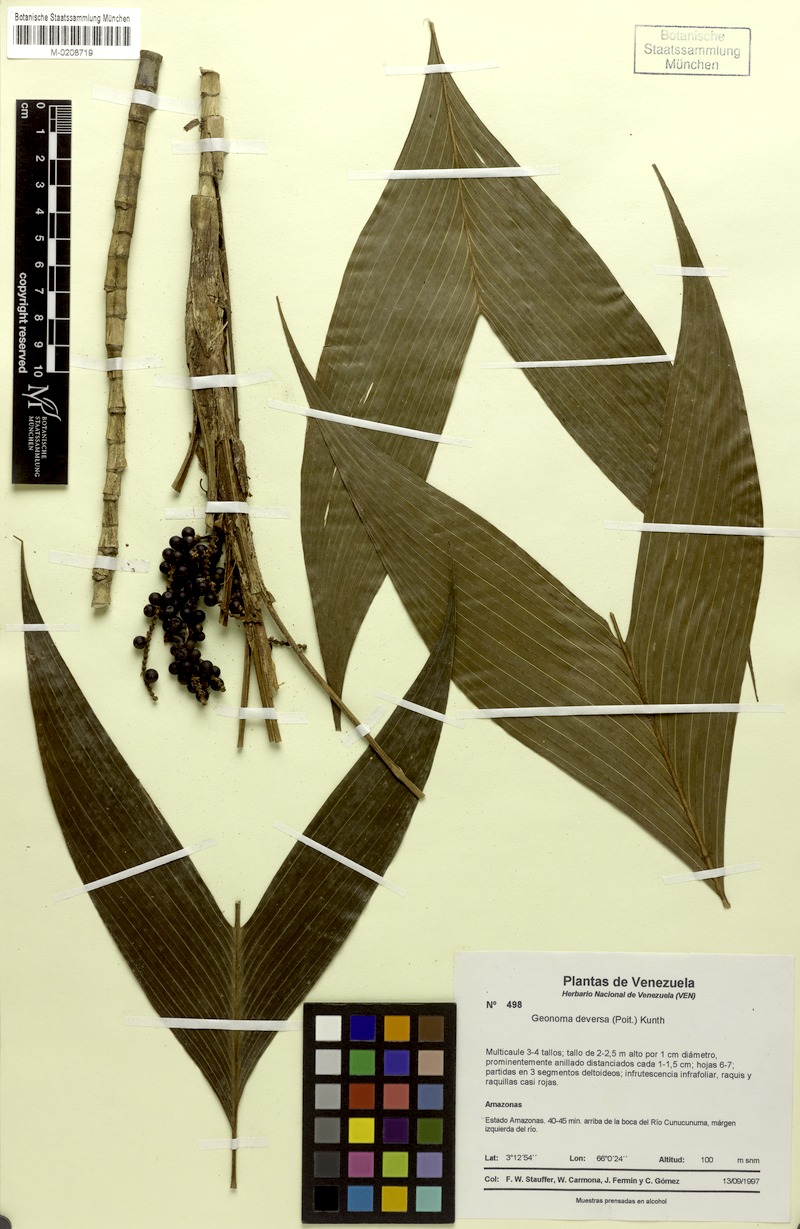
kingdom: Plantae
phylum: Tracheophyta
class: Liliopsida
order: Arecales
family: Arecaceae
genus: Geonoma
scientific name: Geonoma deversa
